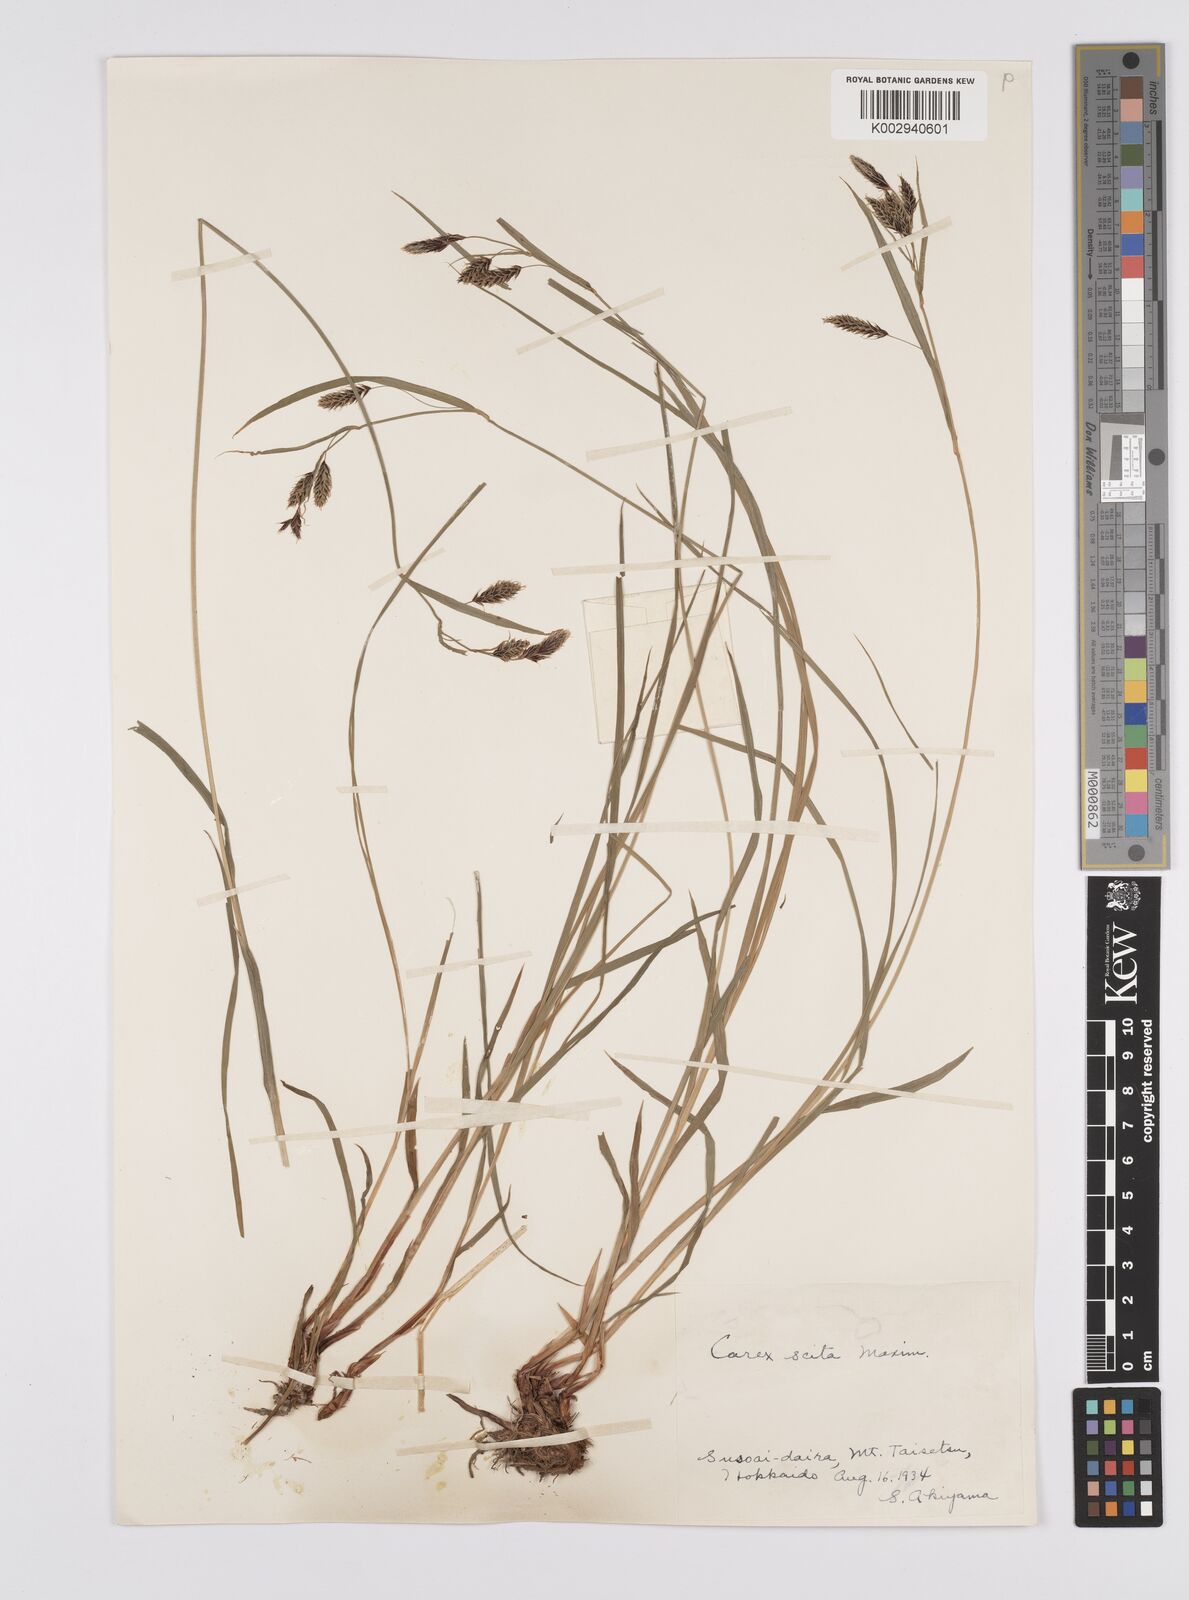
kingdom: Plantae
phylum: Tracheophyta
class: Liliopsida
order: Poales
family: Cyperaceae
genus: Carex
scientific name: Carex scita
